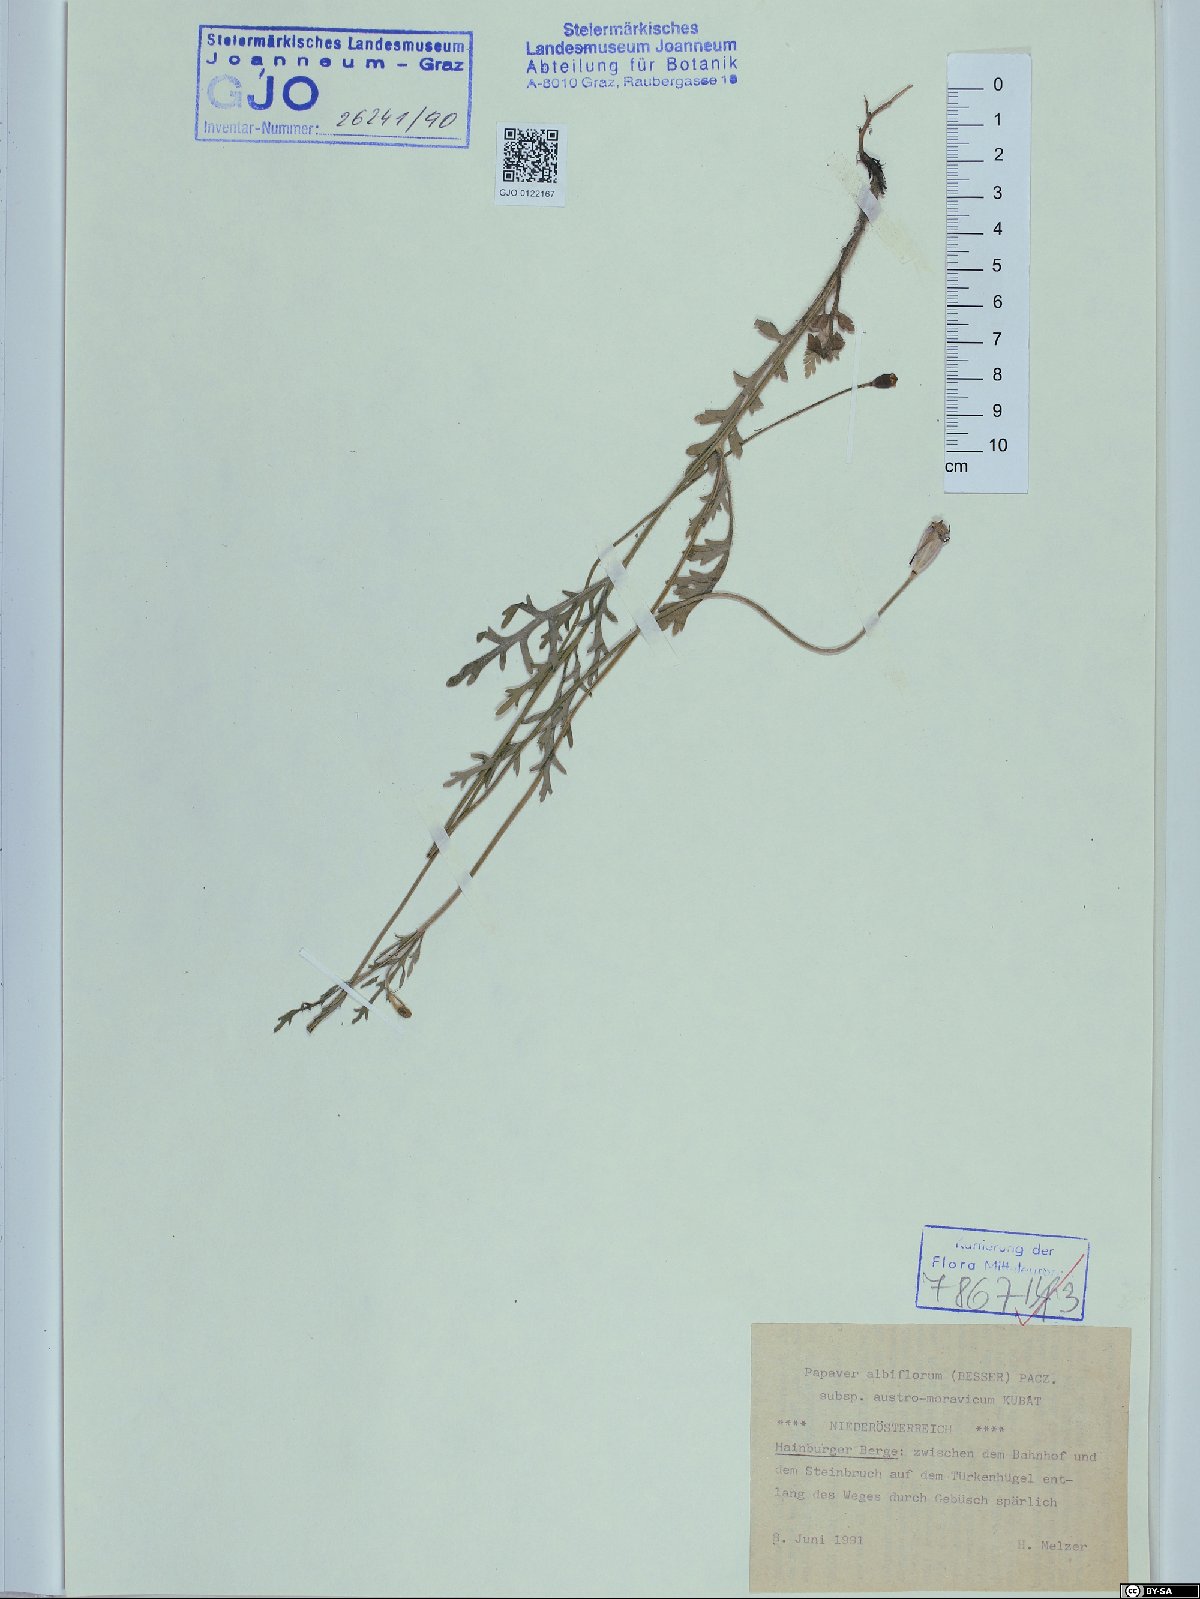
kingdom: Plantae
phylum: Tracheophyta
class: Magnoliopsida
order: Ranunculales
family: Papaveraceae
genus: Papaver
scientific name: Papaver dubium
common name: Long-headed poppy
